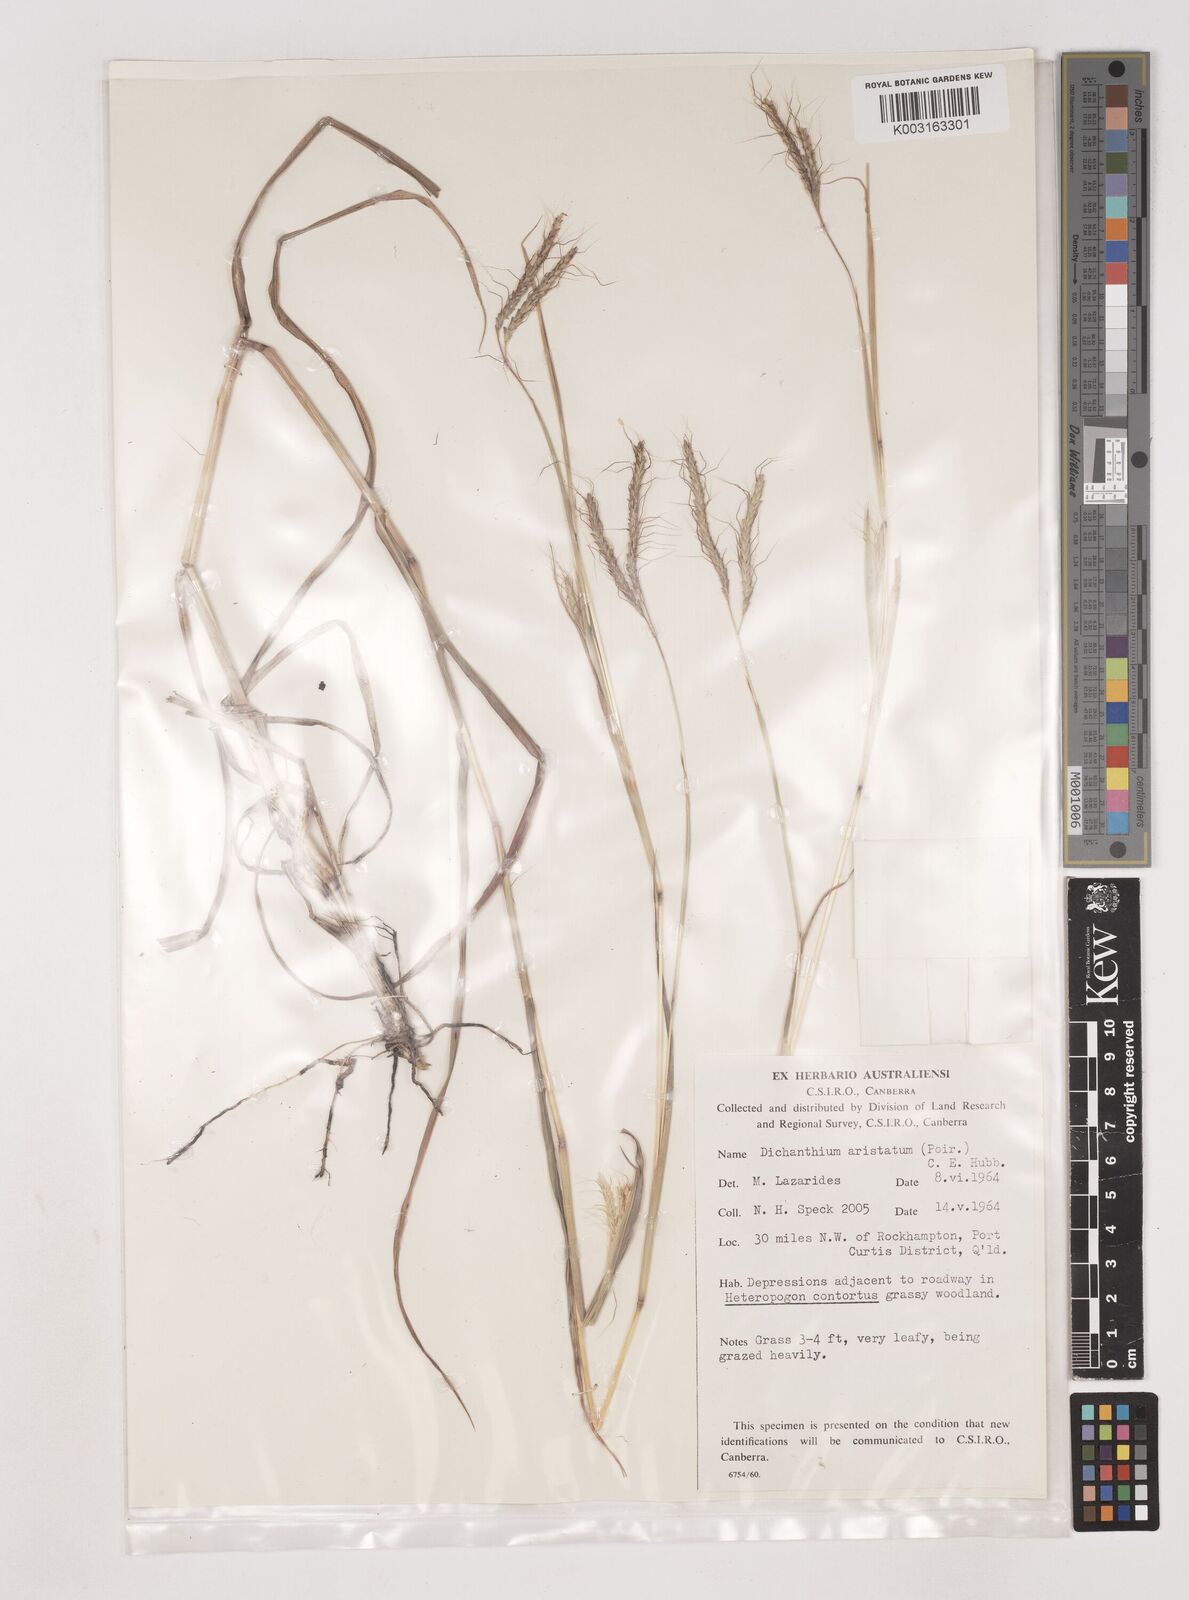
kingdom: Plantae
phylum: Tracheophyta
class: Liliopsida
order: Poales
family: Poaceae
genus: Dichanthium
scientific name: Dichanthium aristatum
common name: Angleton bluestem
